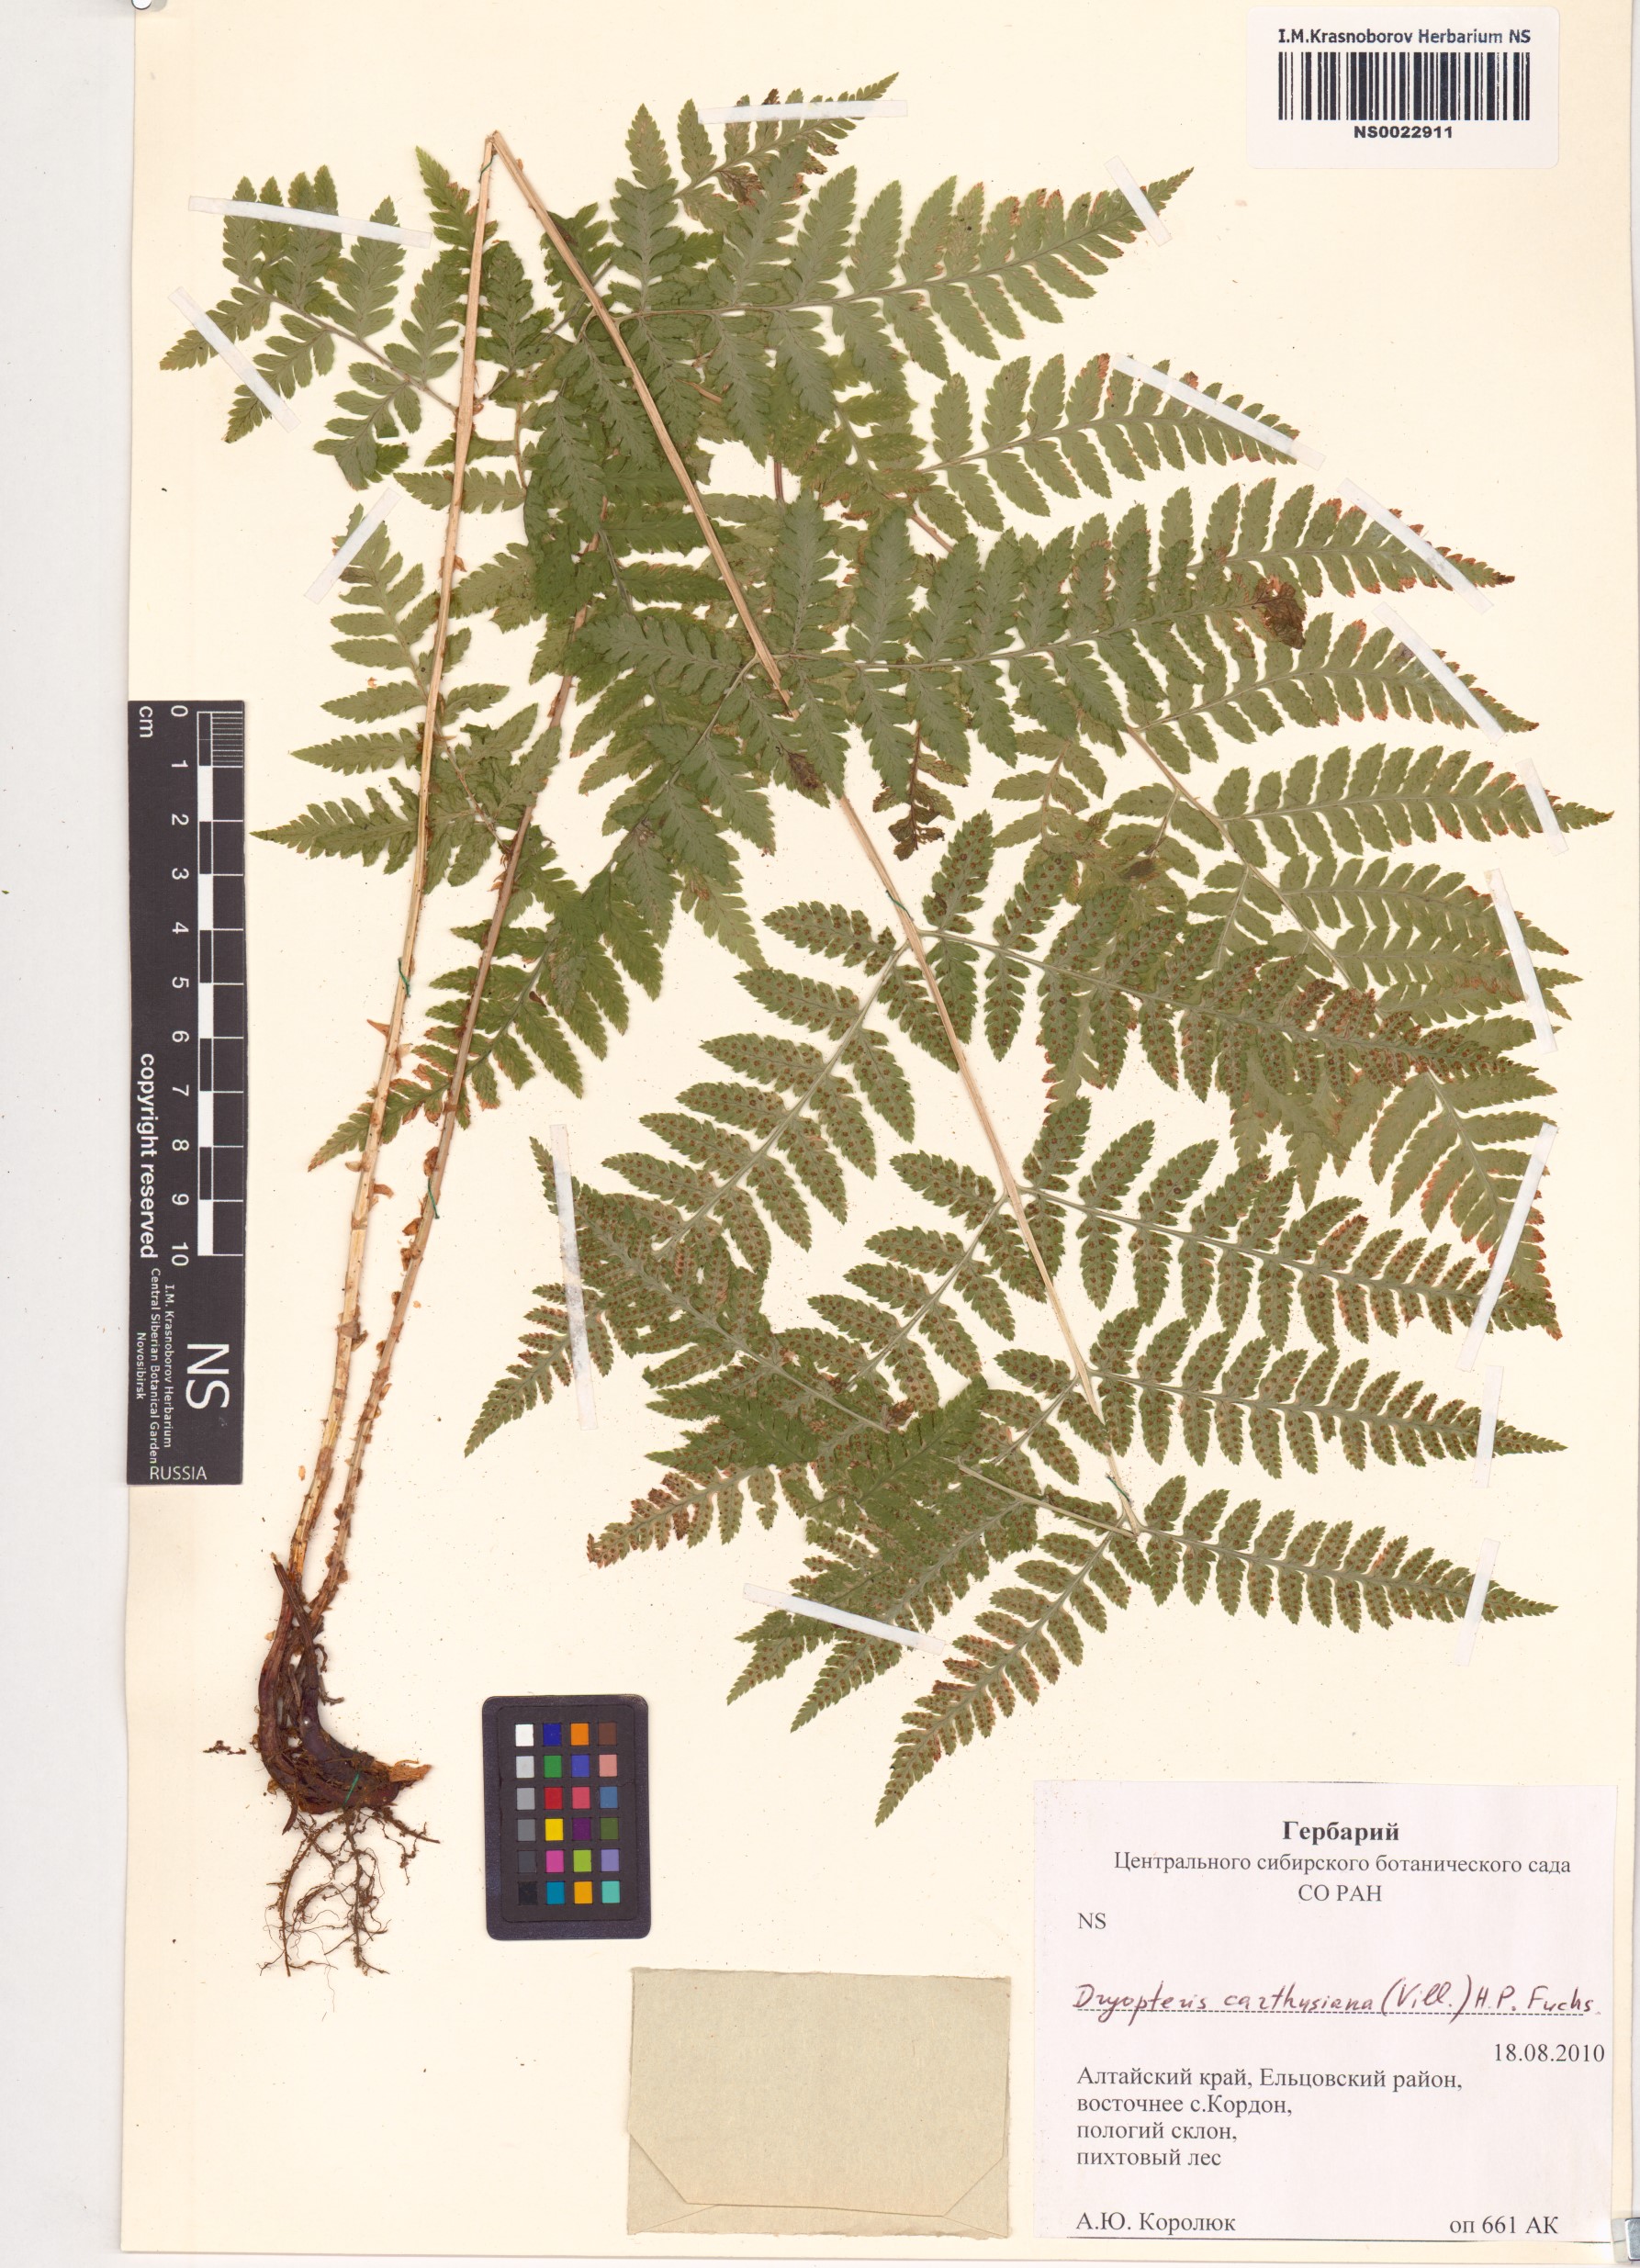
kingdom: Plantae
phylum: Tracheophyta
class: Polypodiopsida
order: Polypodiales
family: Dryopteridaceae
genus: Dryopteris
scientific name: Dryopteris carthusiana
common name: Narrow buckler-fern
